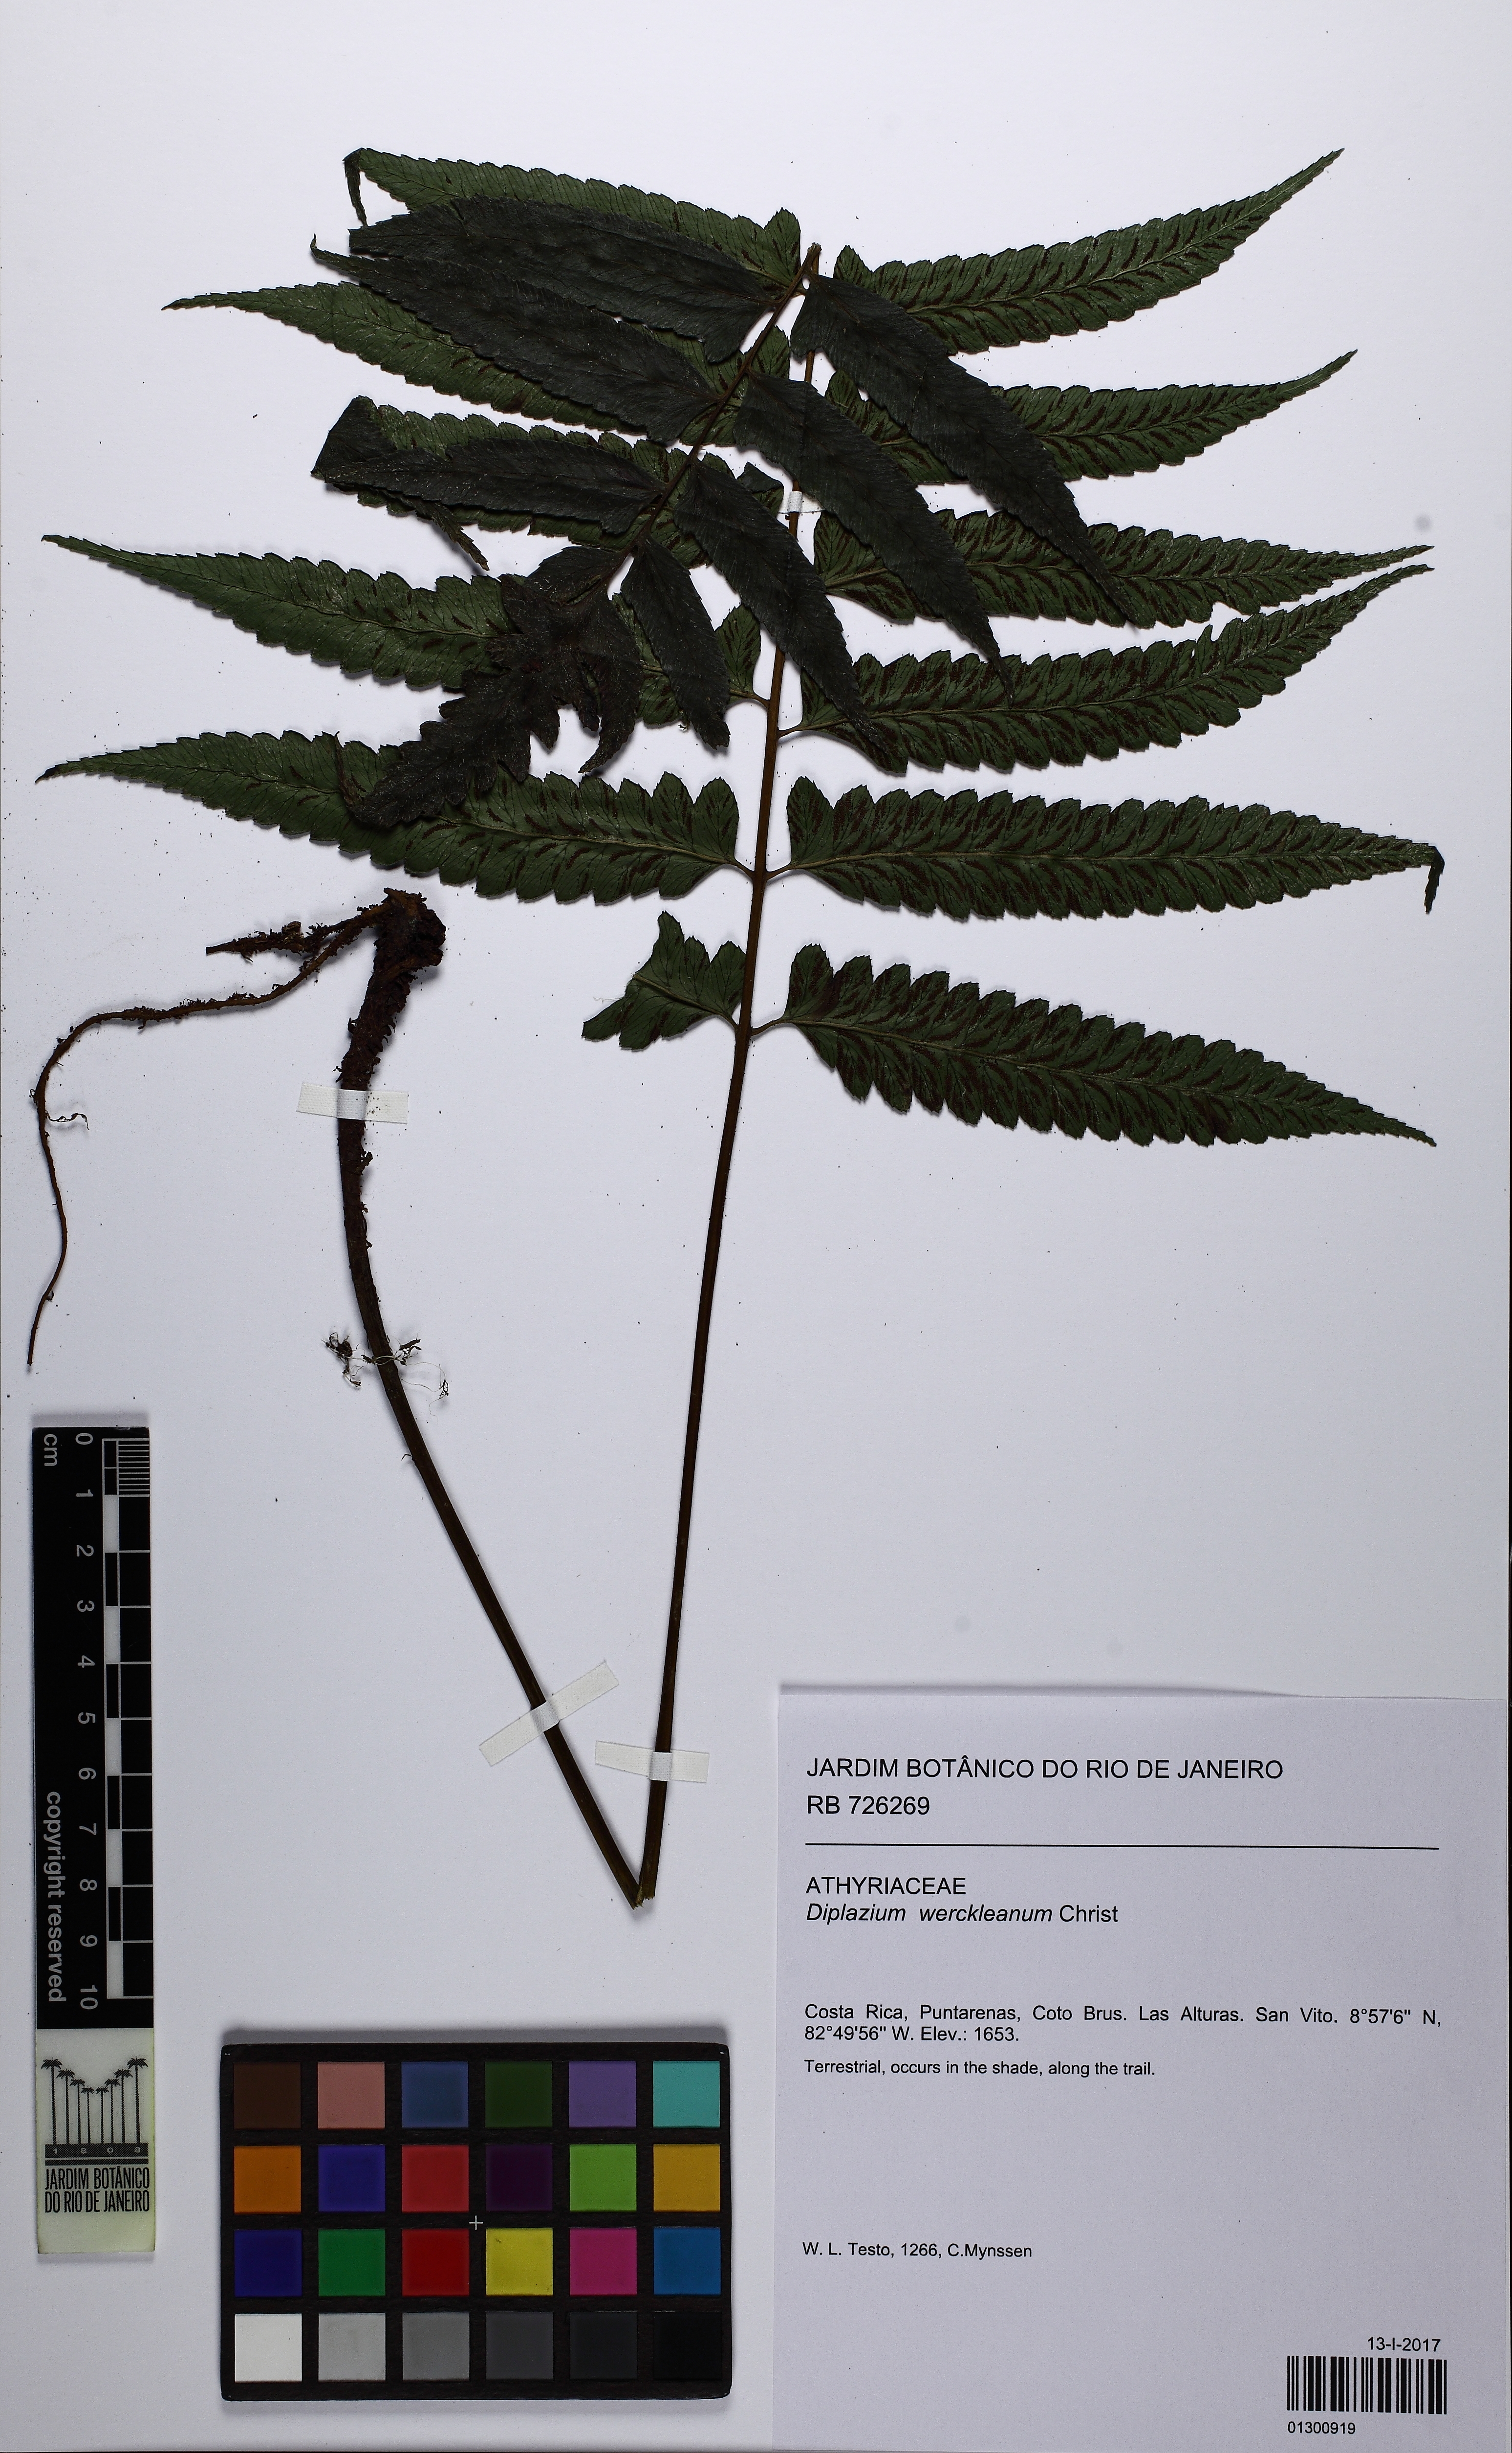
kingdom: Plantae
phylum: Tracheophyta
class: Polypodiopsida
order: Polypodiales
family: Athyriaceae
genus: Diplazium
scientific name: Diplazium werckleanum
